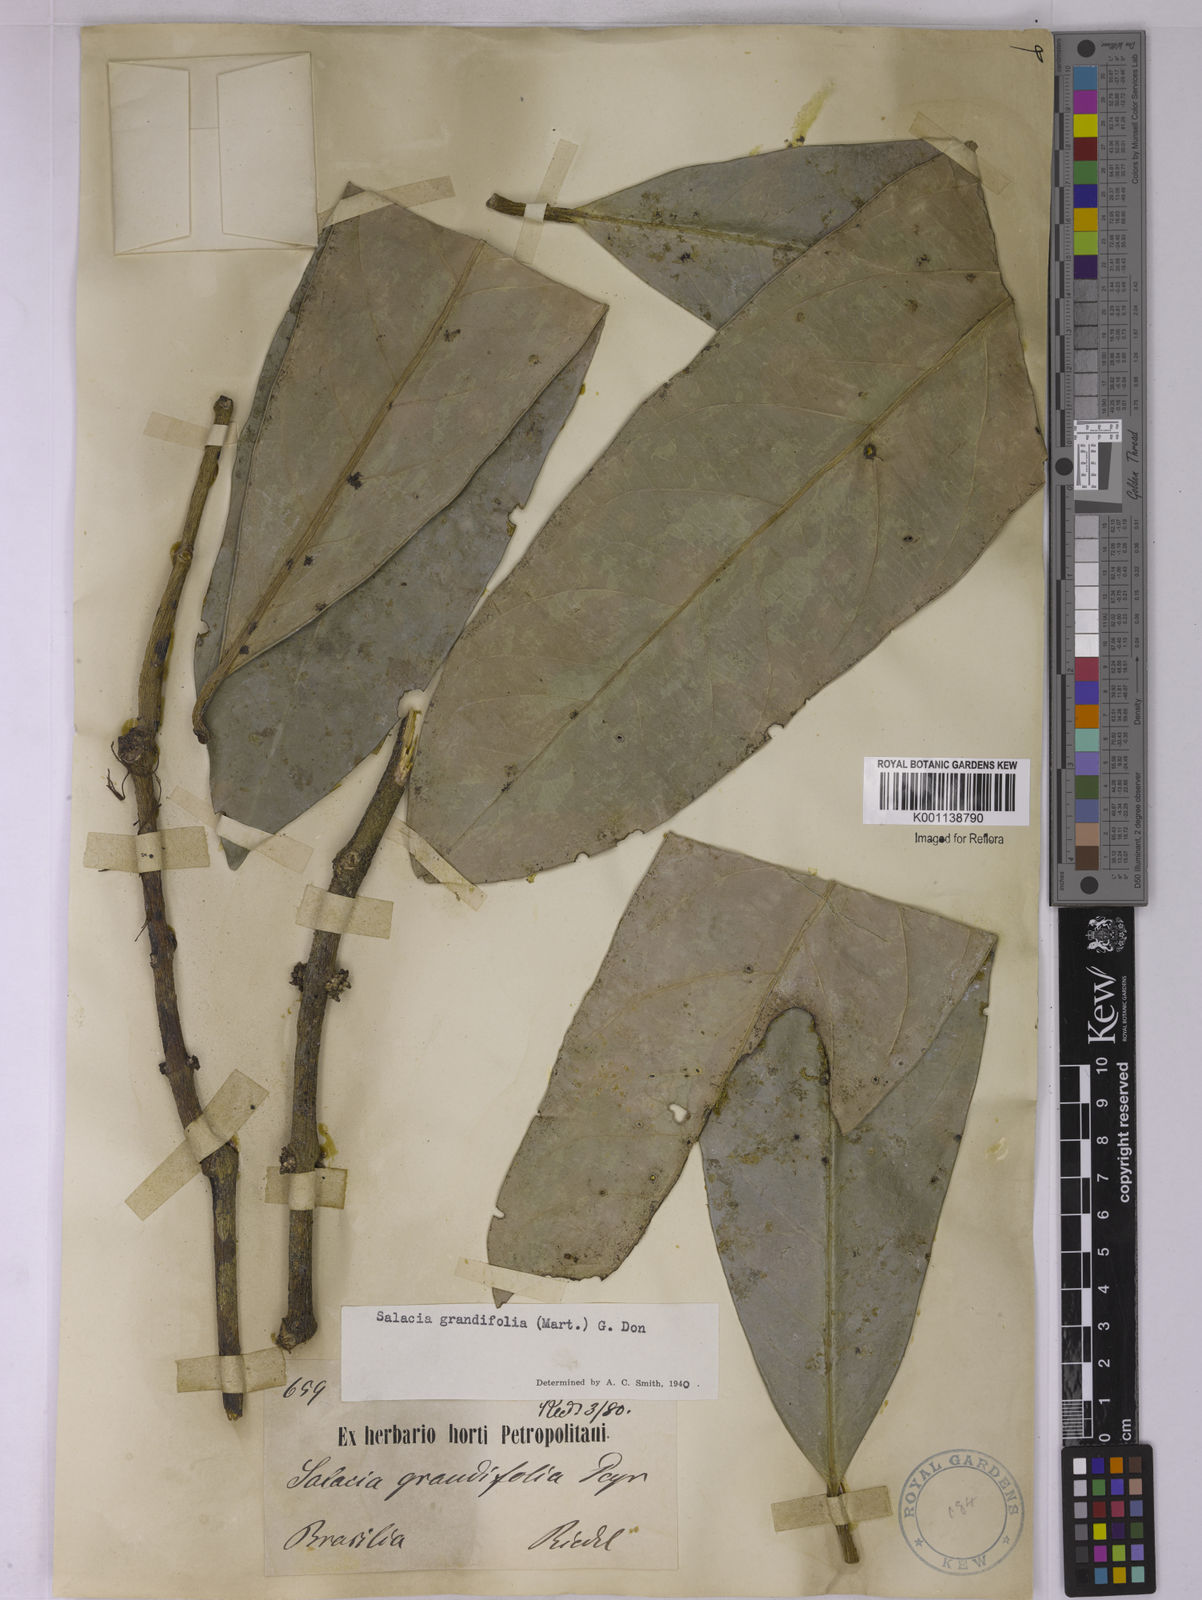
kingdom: Plantae
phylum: Tracheophyta
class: Magnoliopsida
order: Celastrales
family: Celastraceae
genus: Salacia
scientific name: Salacia grandiflora
